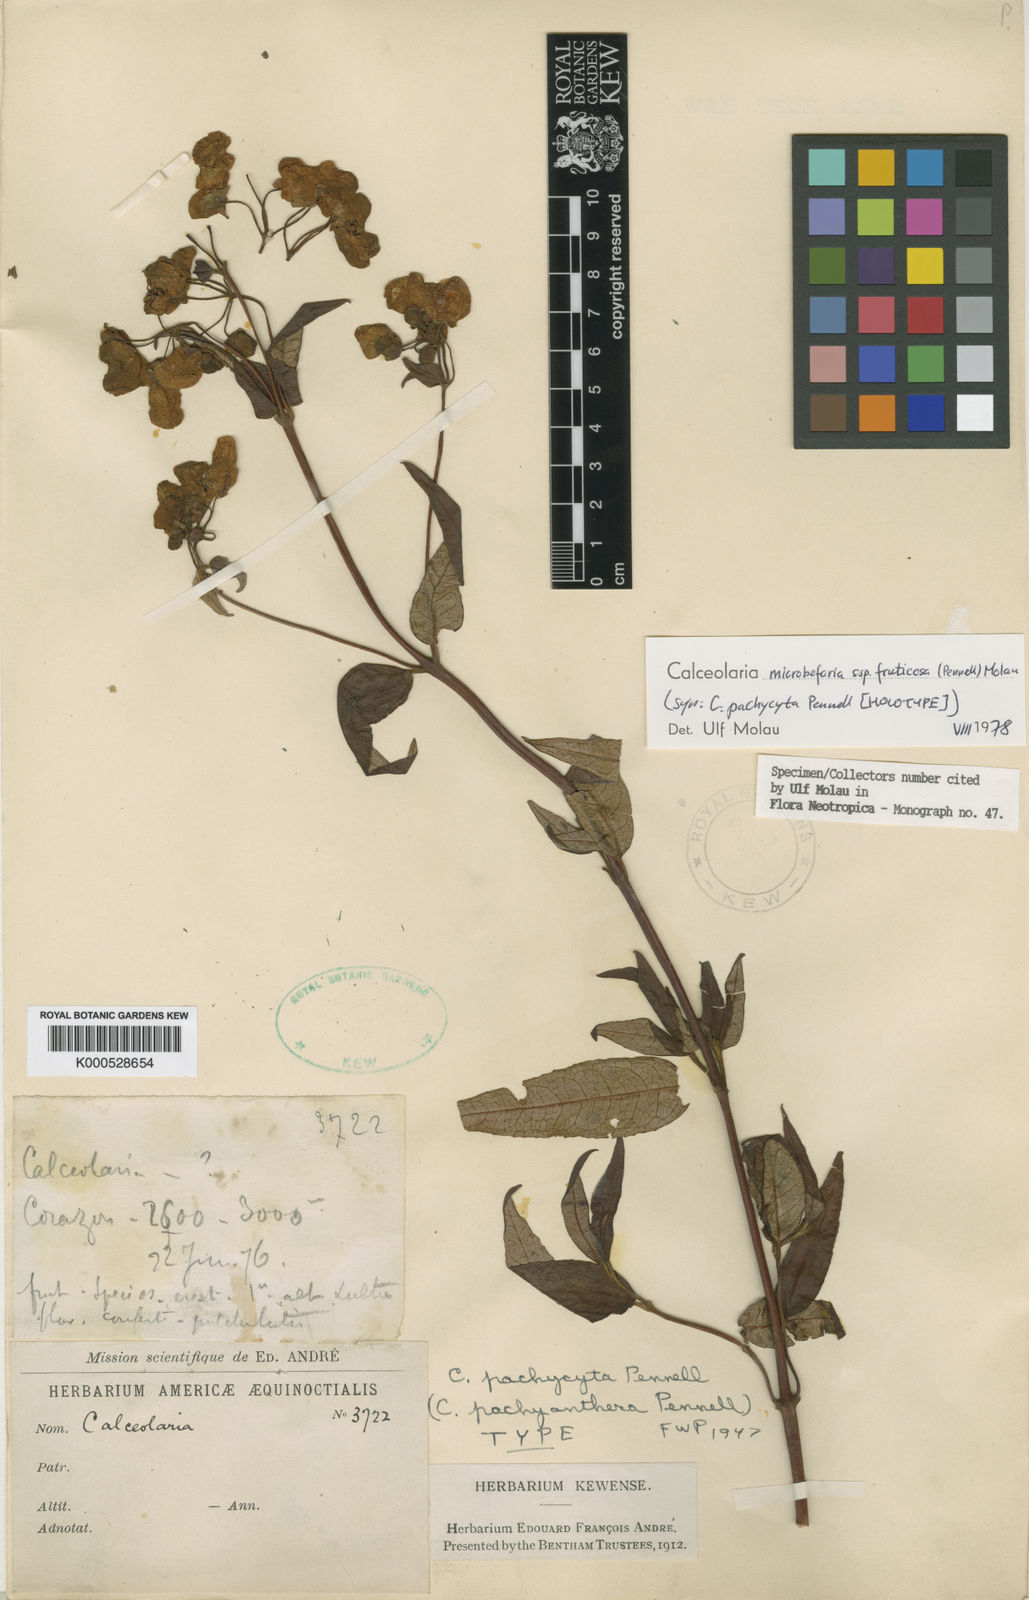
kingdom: Plantae
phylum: Tracheophyta
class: Magnoliopsida
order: Lamiales
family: Calceolariaceae
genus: Calceolaria
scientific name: Calceolaria microbefaria
